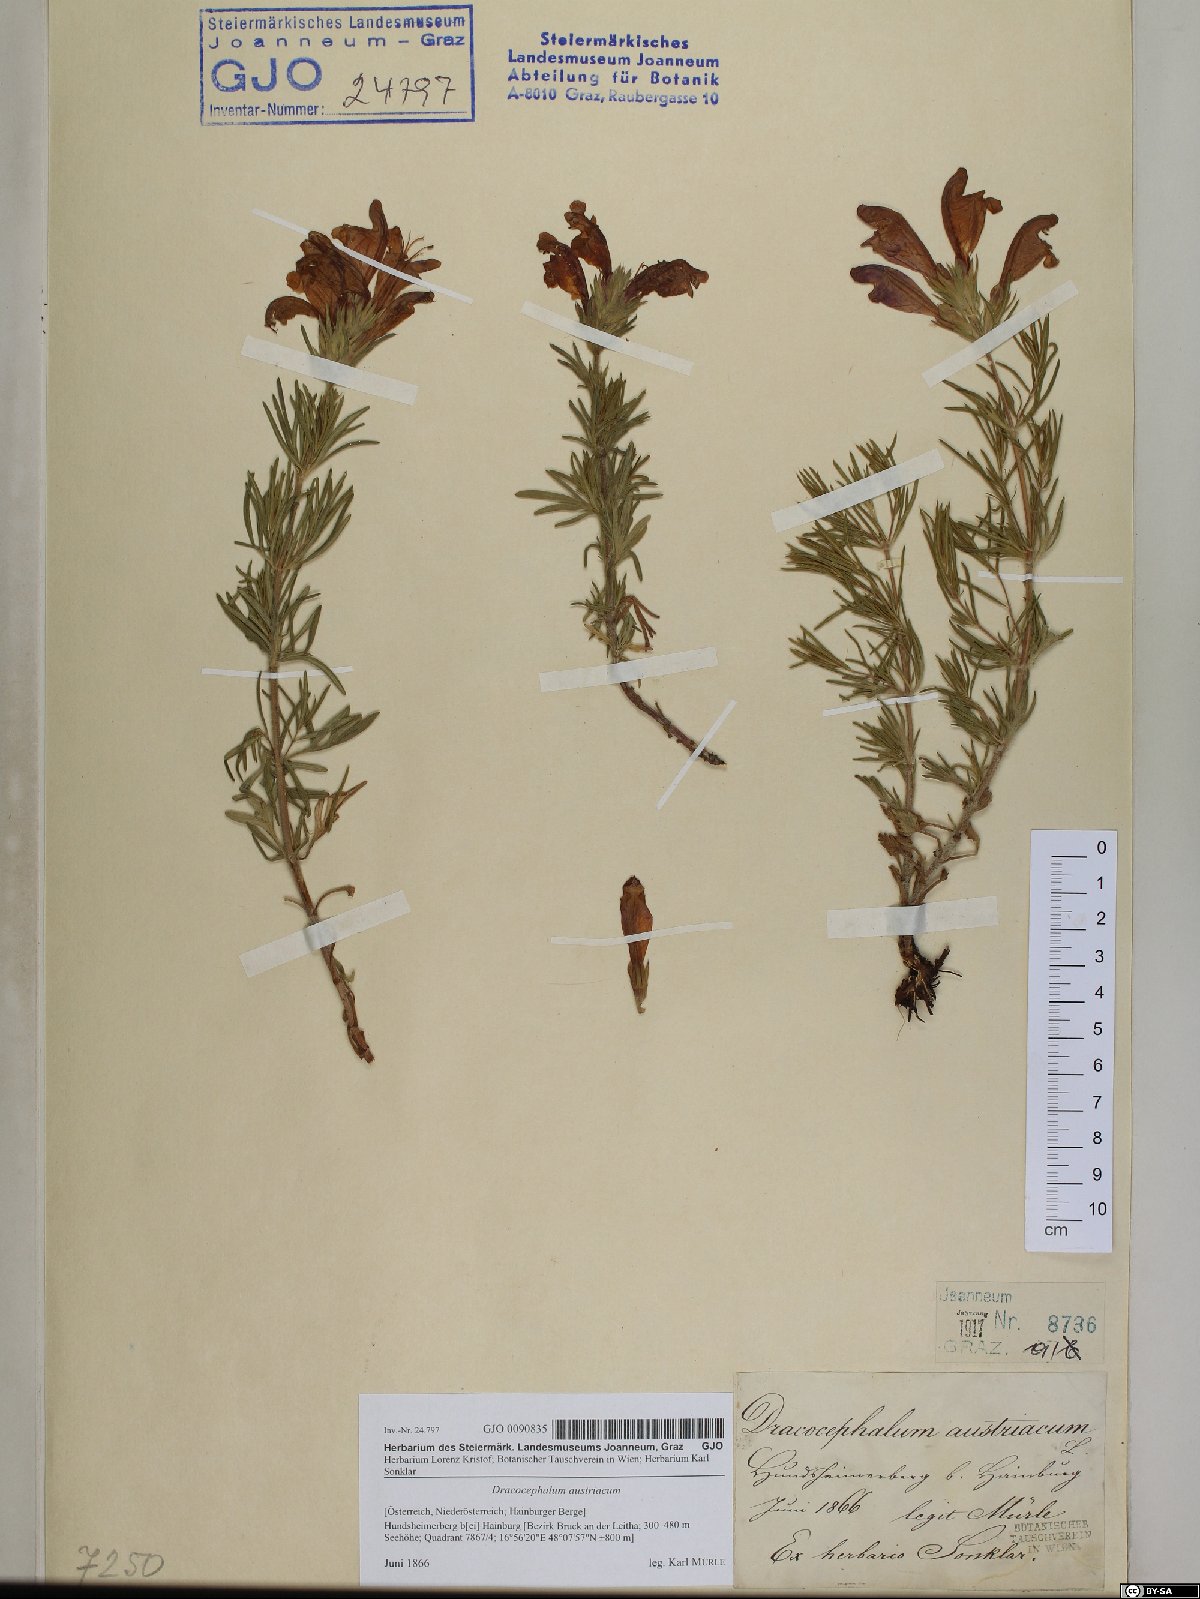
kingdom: Plantae
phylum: Tracheophyta
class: Magnoliopsida
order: Lamiales
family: Lamiaceae
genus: Dracocephalum
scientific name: Dracocephalum austriacum
